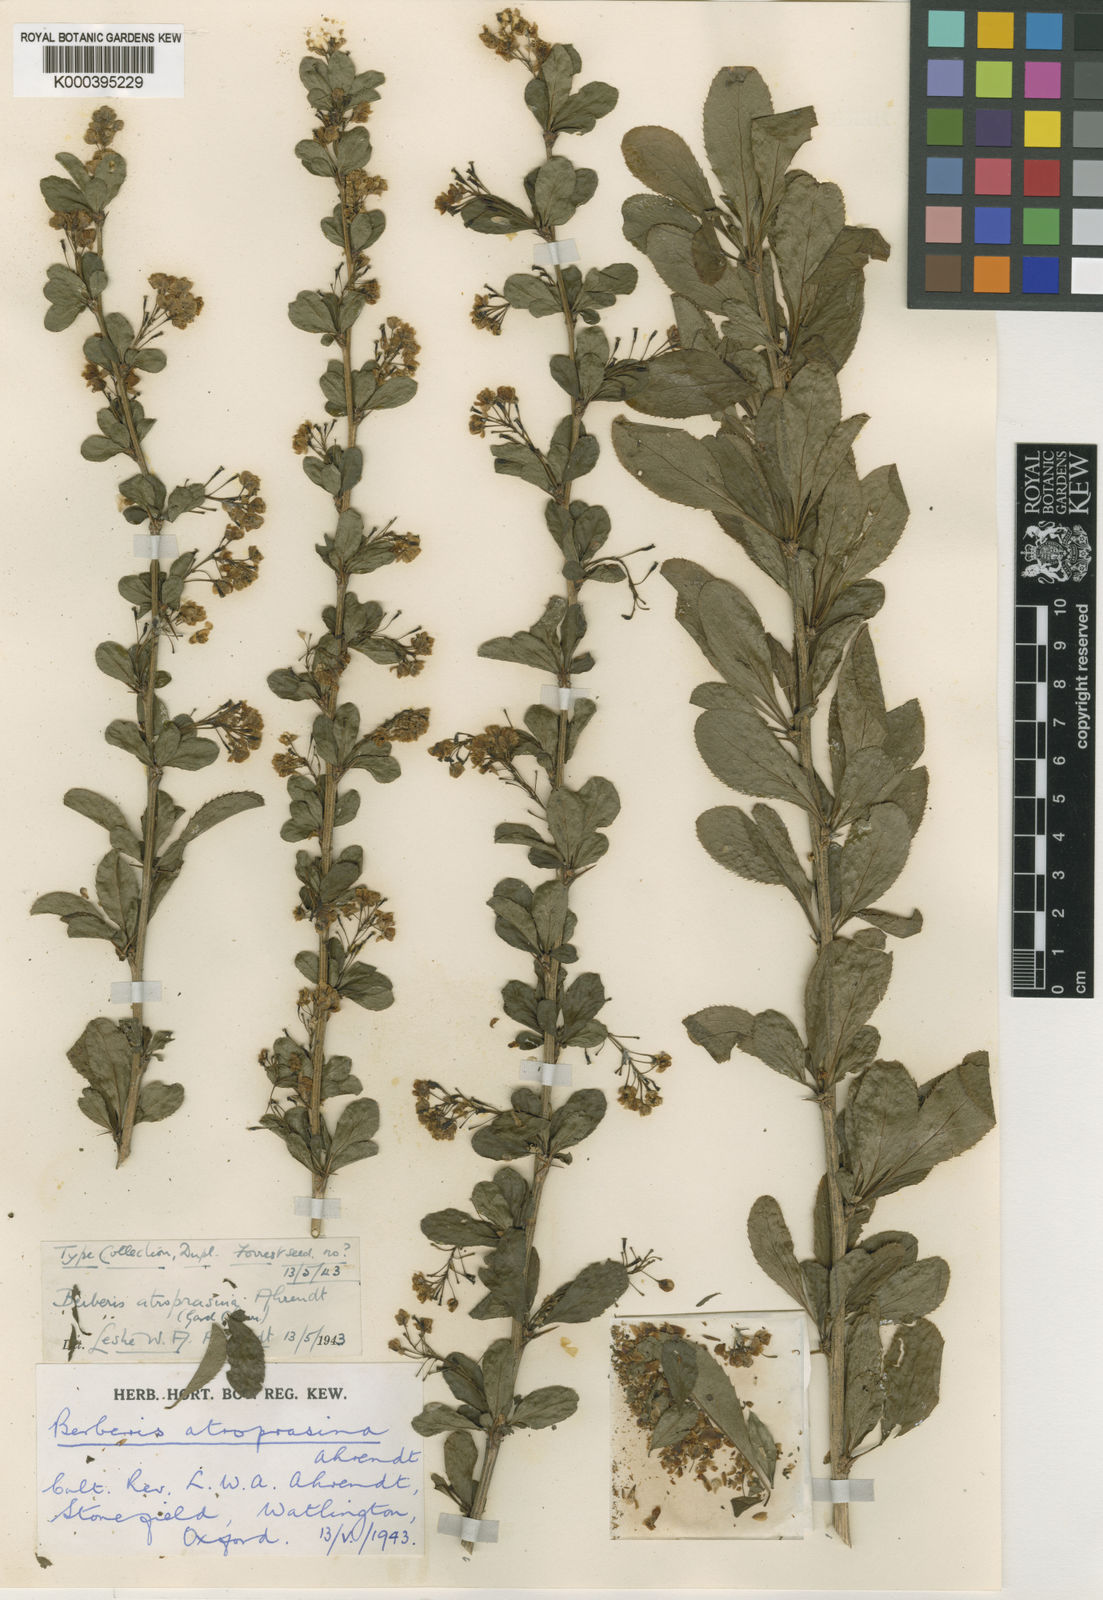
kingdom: Plantae
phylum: Tracheophyta
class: Magnoliopsida
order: Ranunculales
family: Berberidaceae
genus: Berberis
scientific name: Berberis atroprasina
